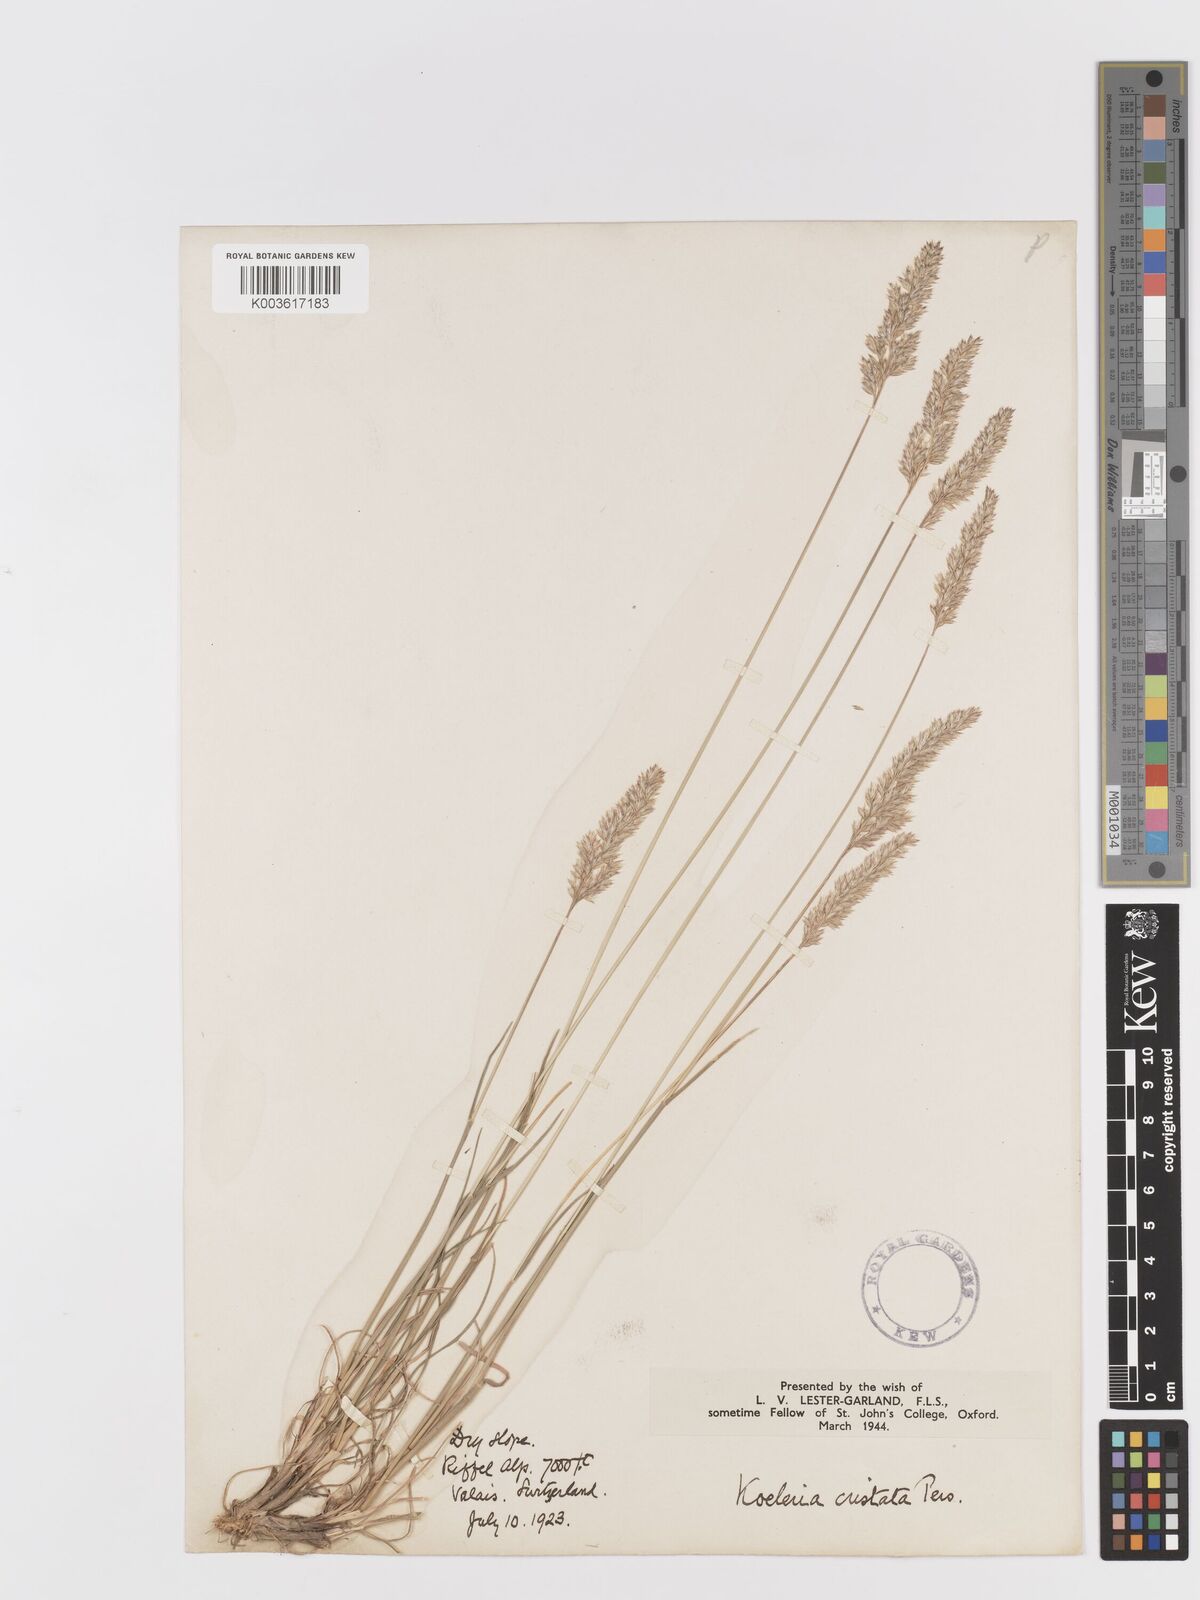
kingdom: Plantae
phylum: Tracheophyta
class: Liliopsida
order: Poales
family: Poaceae
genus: Koeleria
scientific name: Koeleria
